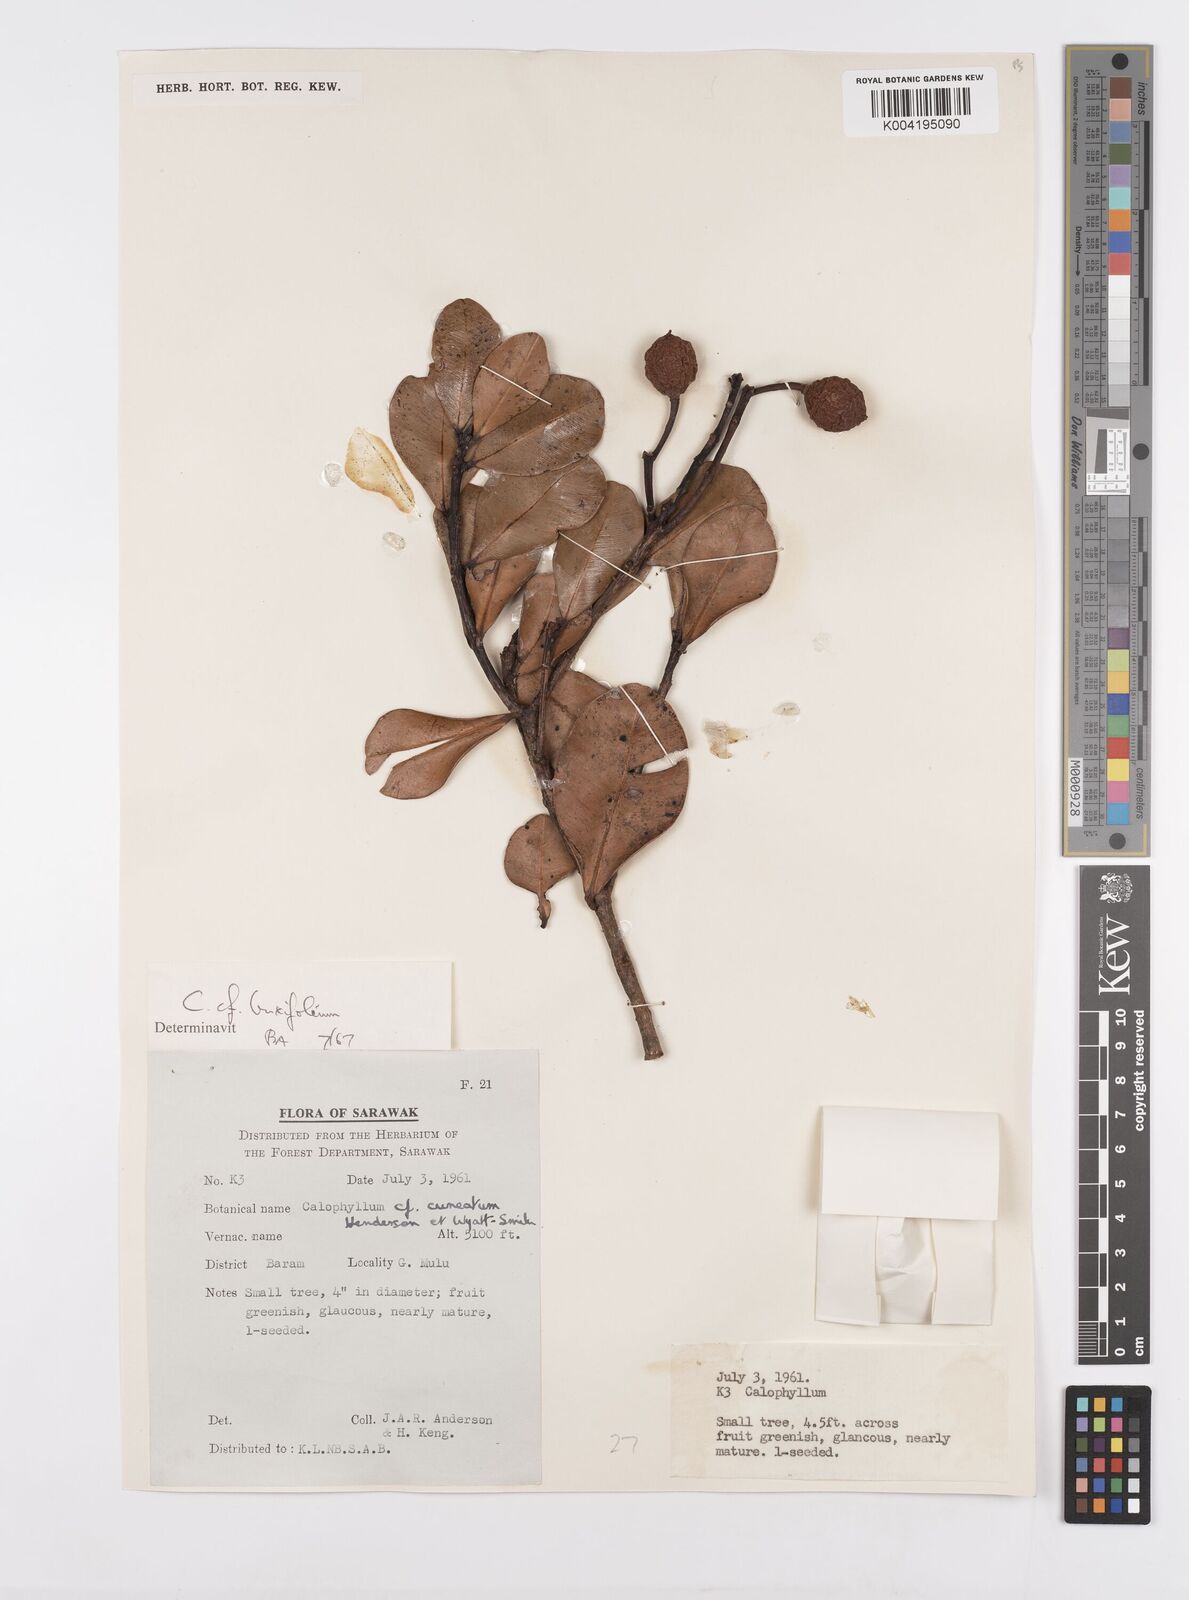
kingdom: Plantae
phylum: Tracheophyta
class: Magnoliopsida
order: Malpighiales
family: Calophyllaceae
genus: Calophyllum
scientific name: Calophyllum garcinioides
